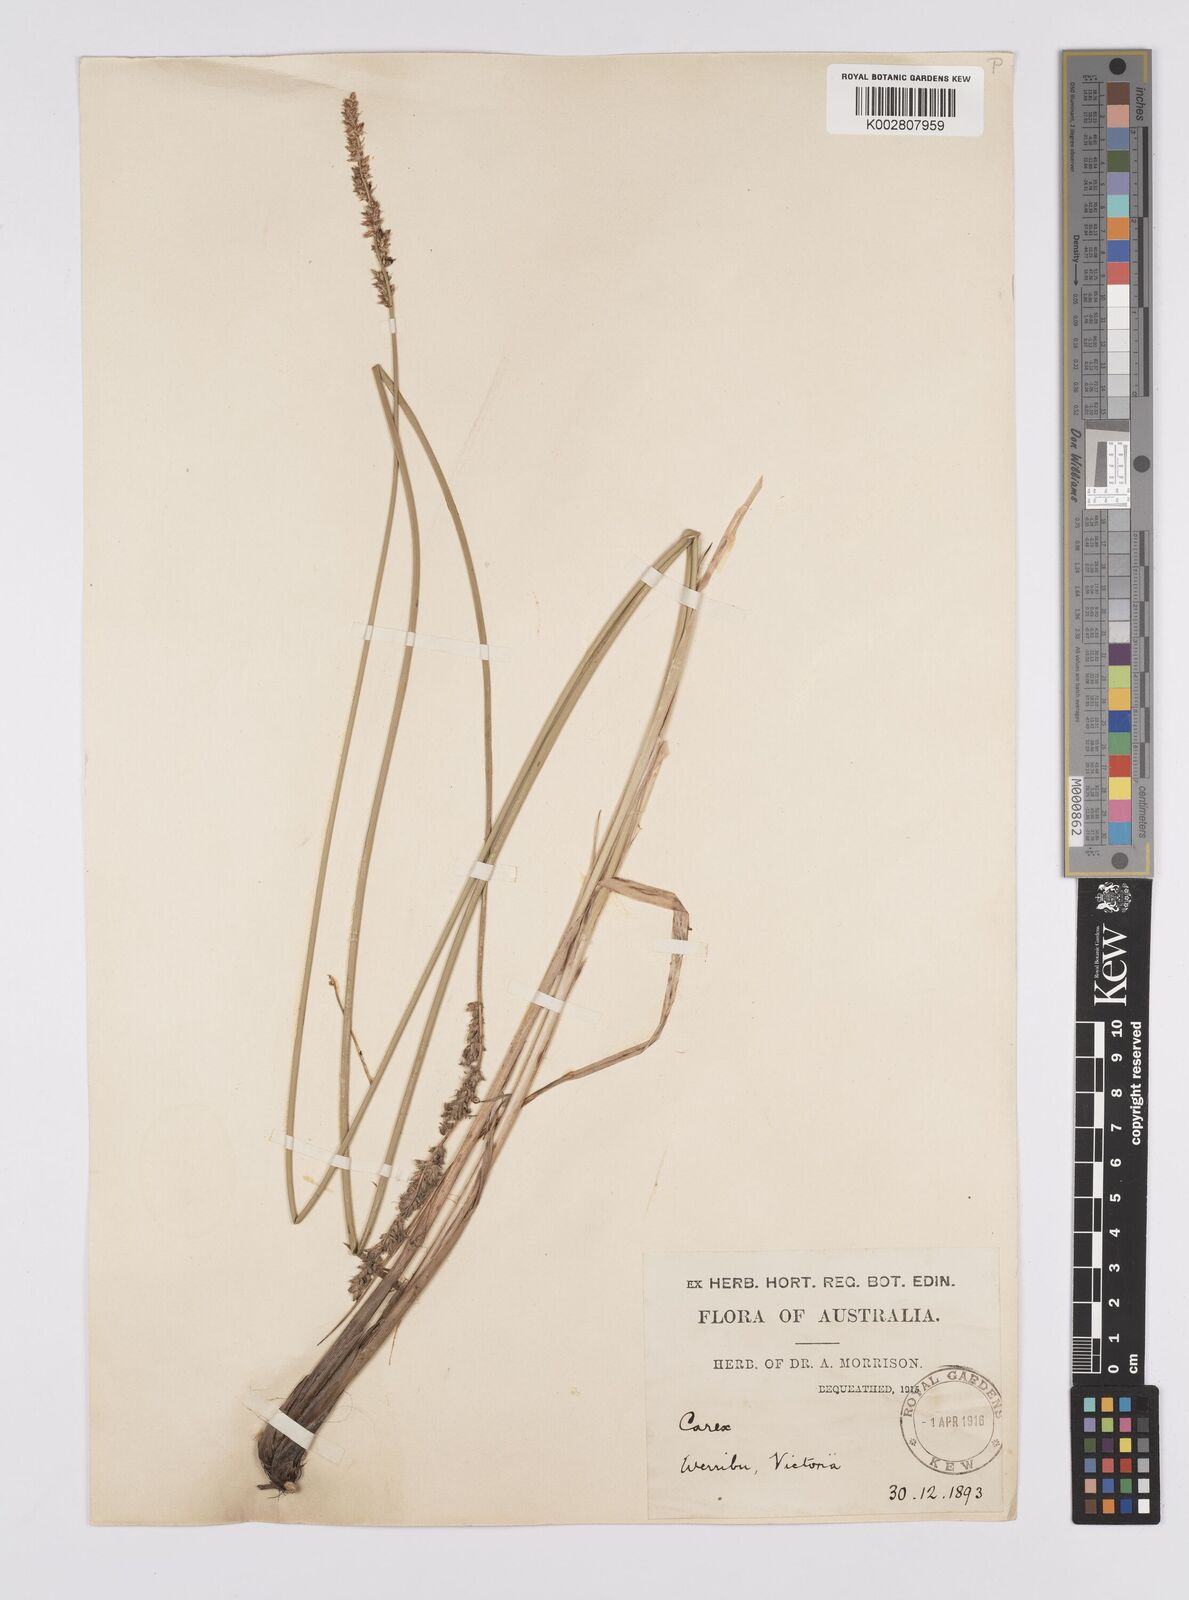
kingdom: Plantae
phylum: Tracheophyta
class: Liliopsida
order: Poales
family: Cyperaceae
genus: Carex
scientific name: Carex tereticaulis
